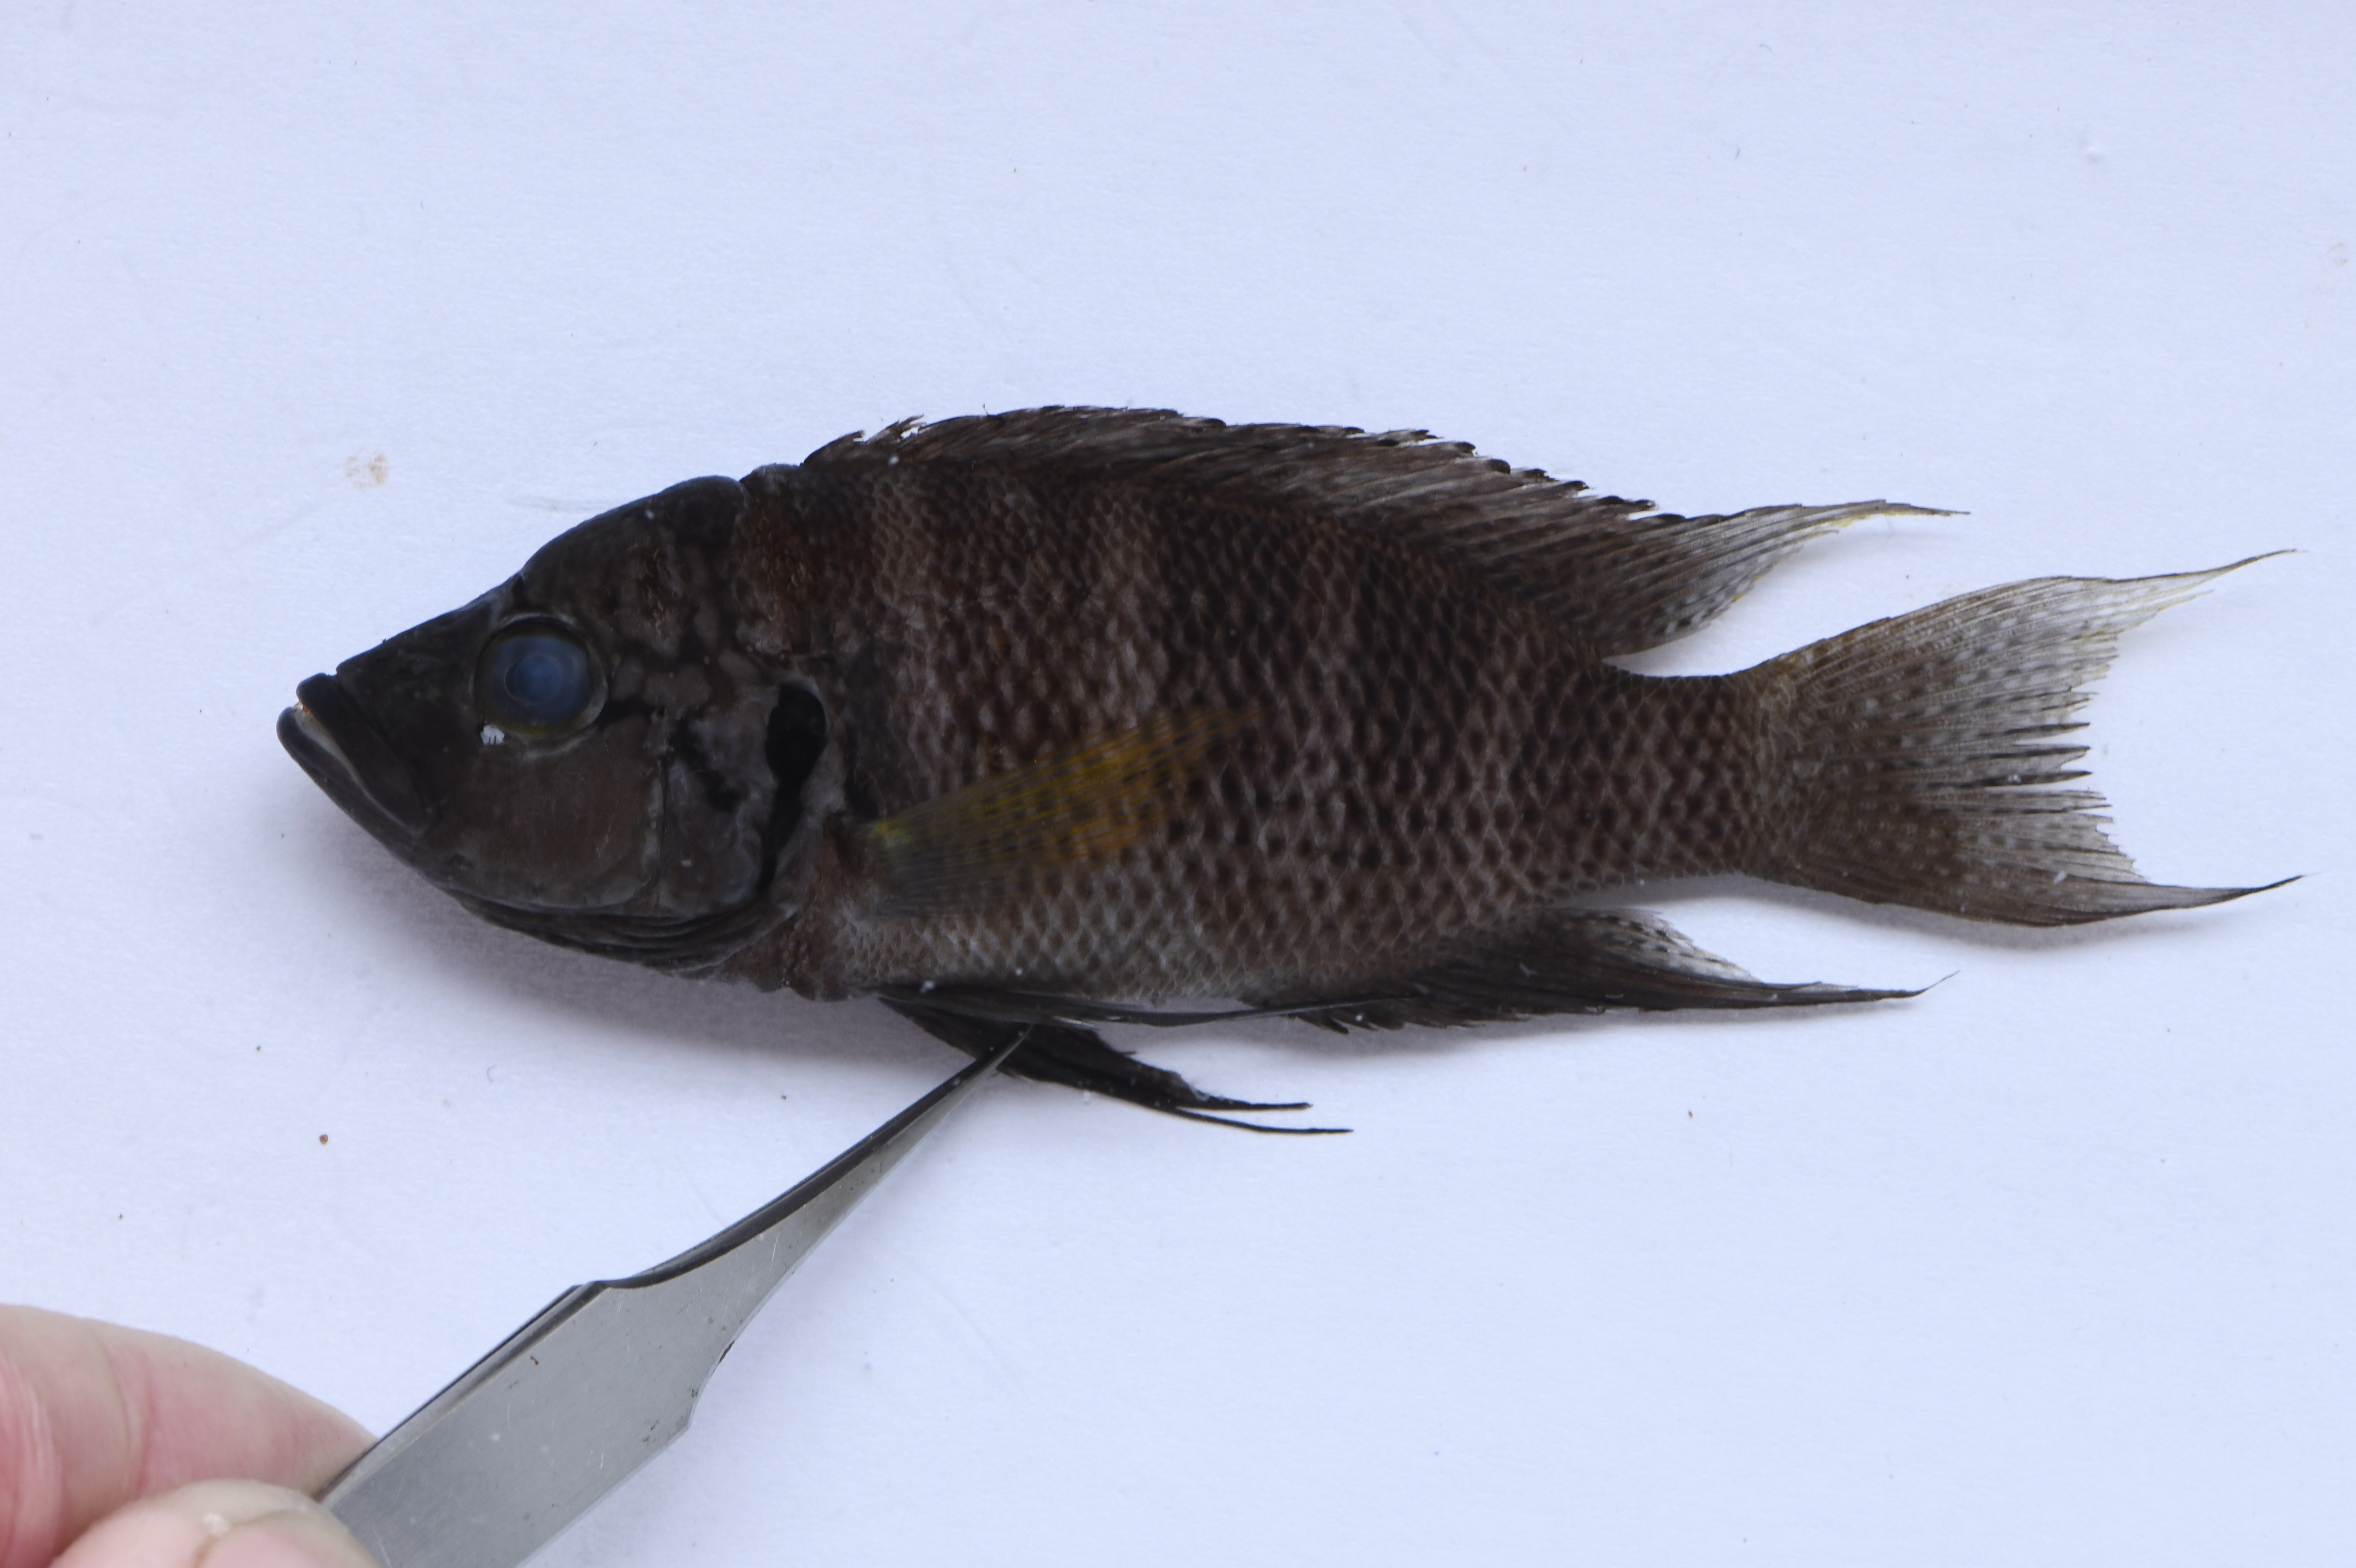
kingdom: Animalia
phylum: Chordata
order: Perciformes
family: Cichlidae
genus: Neolamprologus
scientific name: Neolamprologus savoryi
